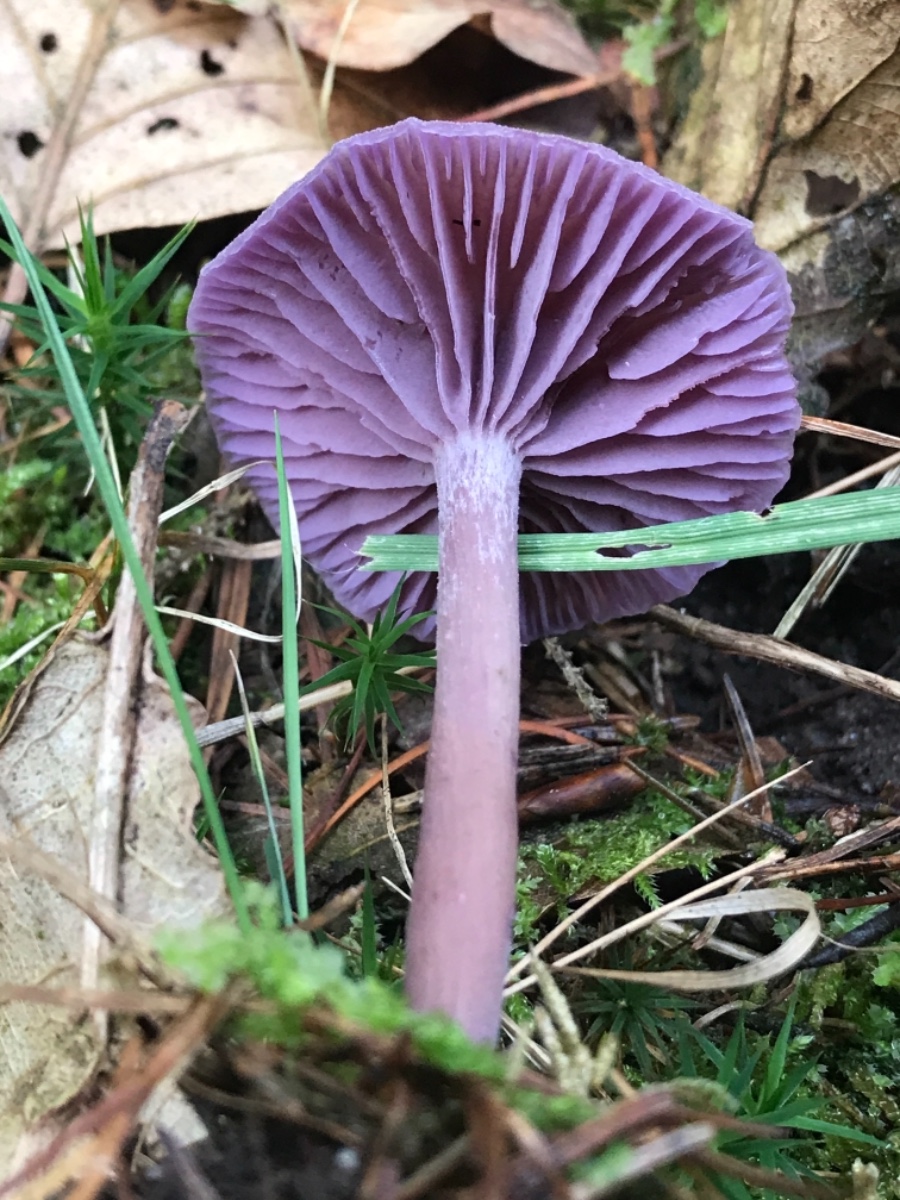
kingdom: Fungi
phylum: Basidiomycota
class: Agaricomycetes
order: Agaricales
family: Hydnangiaceae
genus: Laccaria
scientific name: Laccaria amethystina
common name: violet ametysthat
